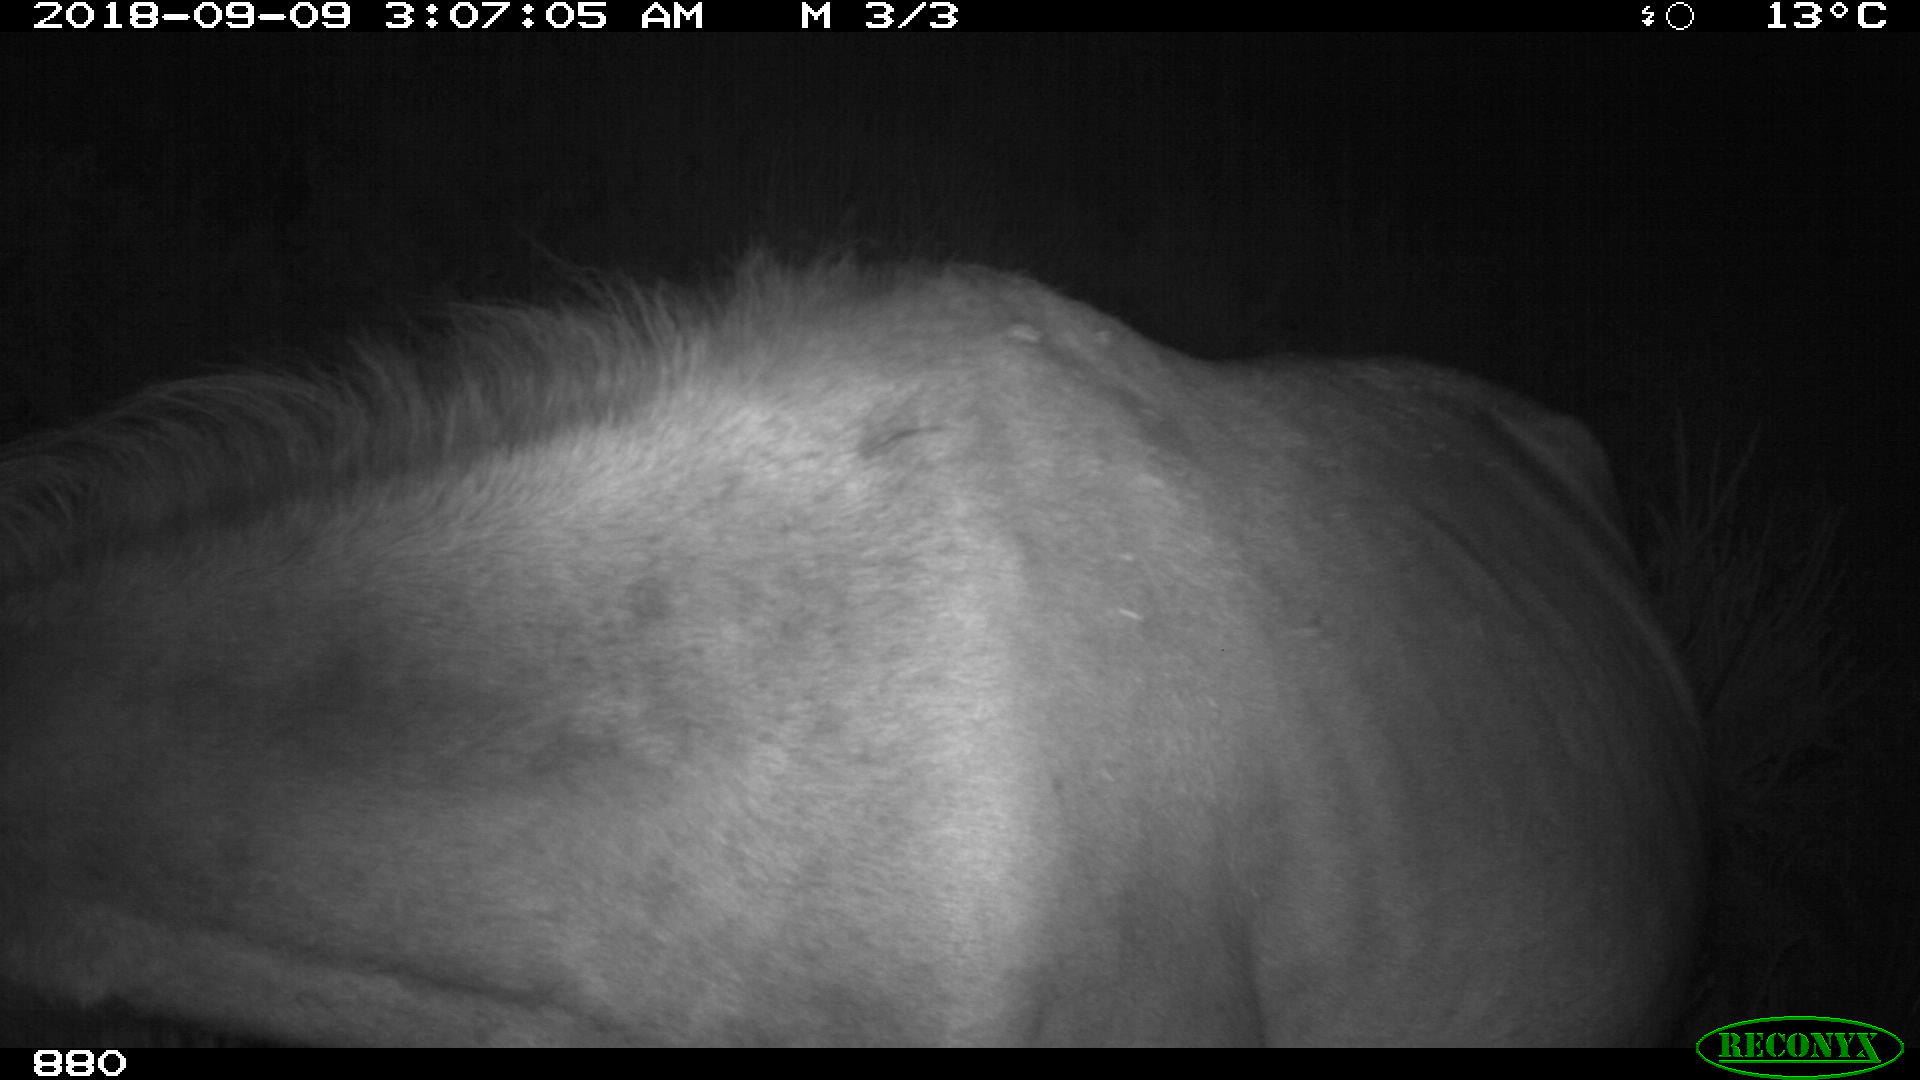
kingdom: Animalia
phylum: Chordata
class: Mammalia
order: Perissodactyla
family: Equidae
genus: Equus
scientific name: Equus caballus
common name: Horse
